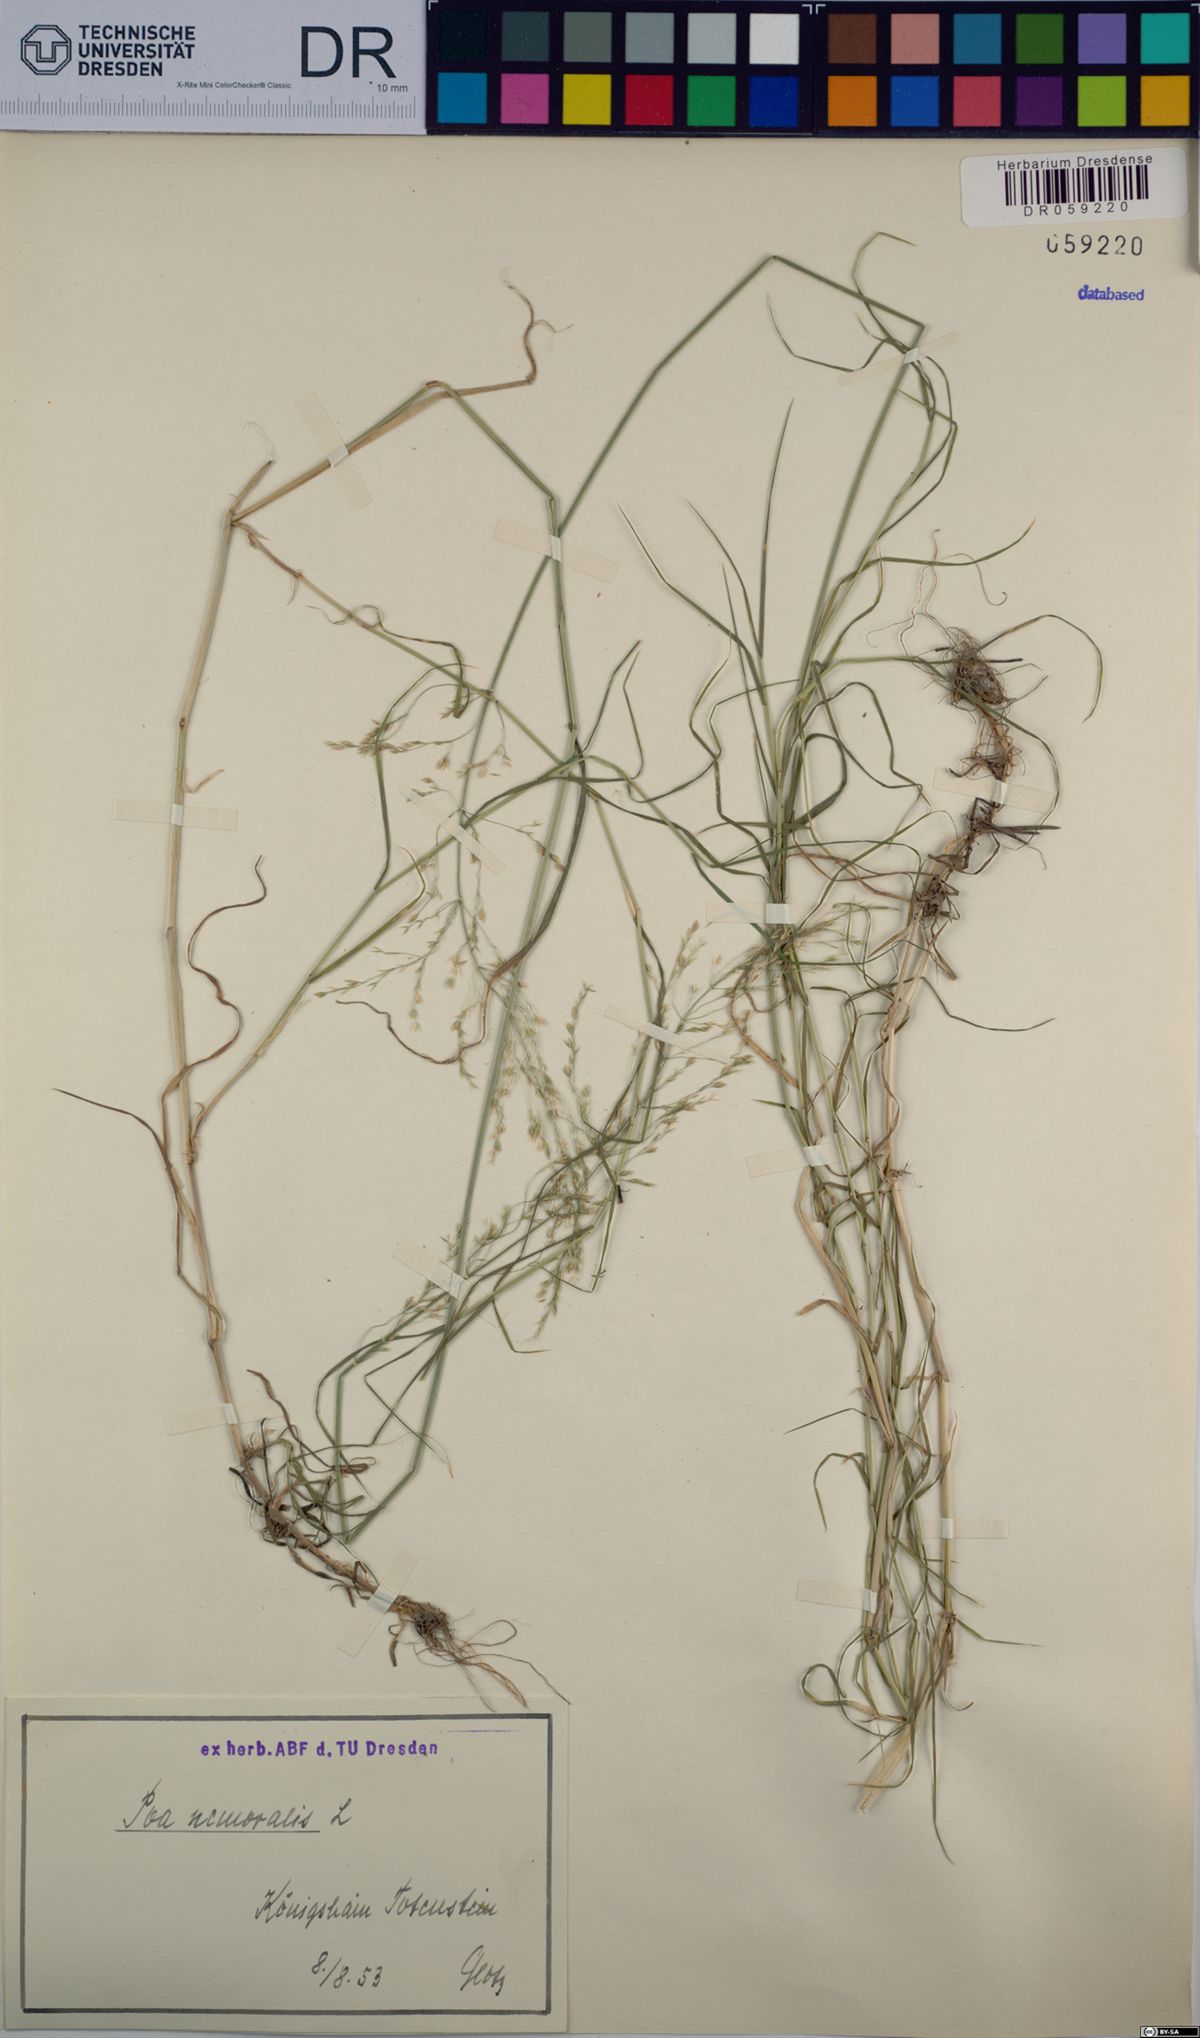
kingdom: Plantae
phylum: Tracheophyta
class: Liliopsida
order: Poales
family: Poaceae
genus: Poa
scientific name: Poa nemoralis
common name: Wood bluegrass
